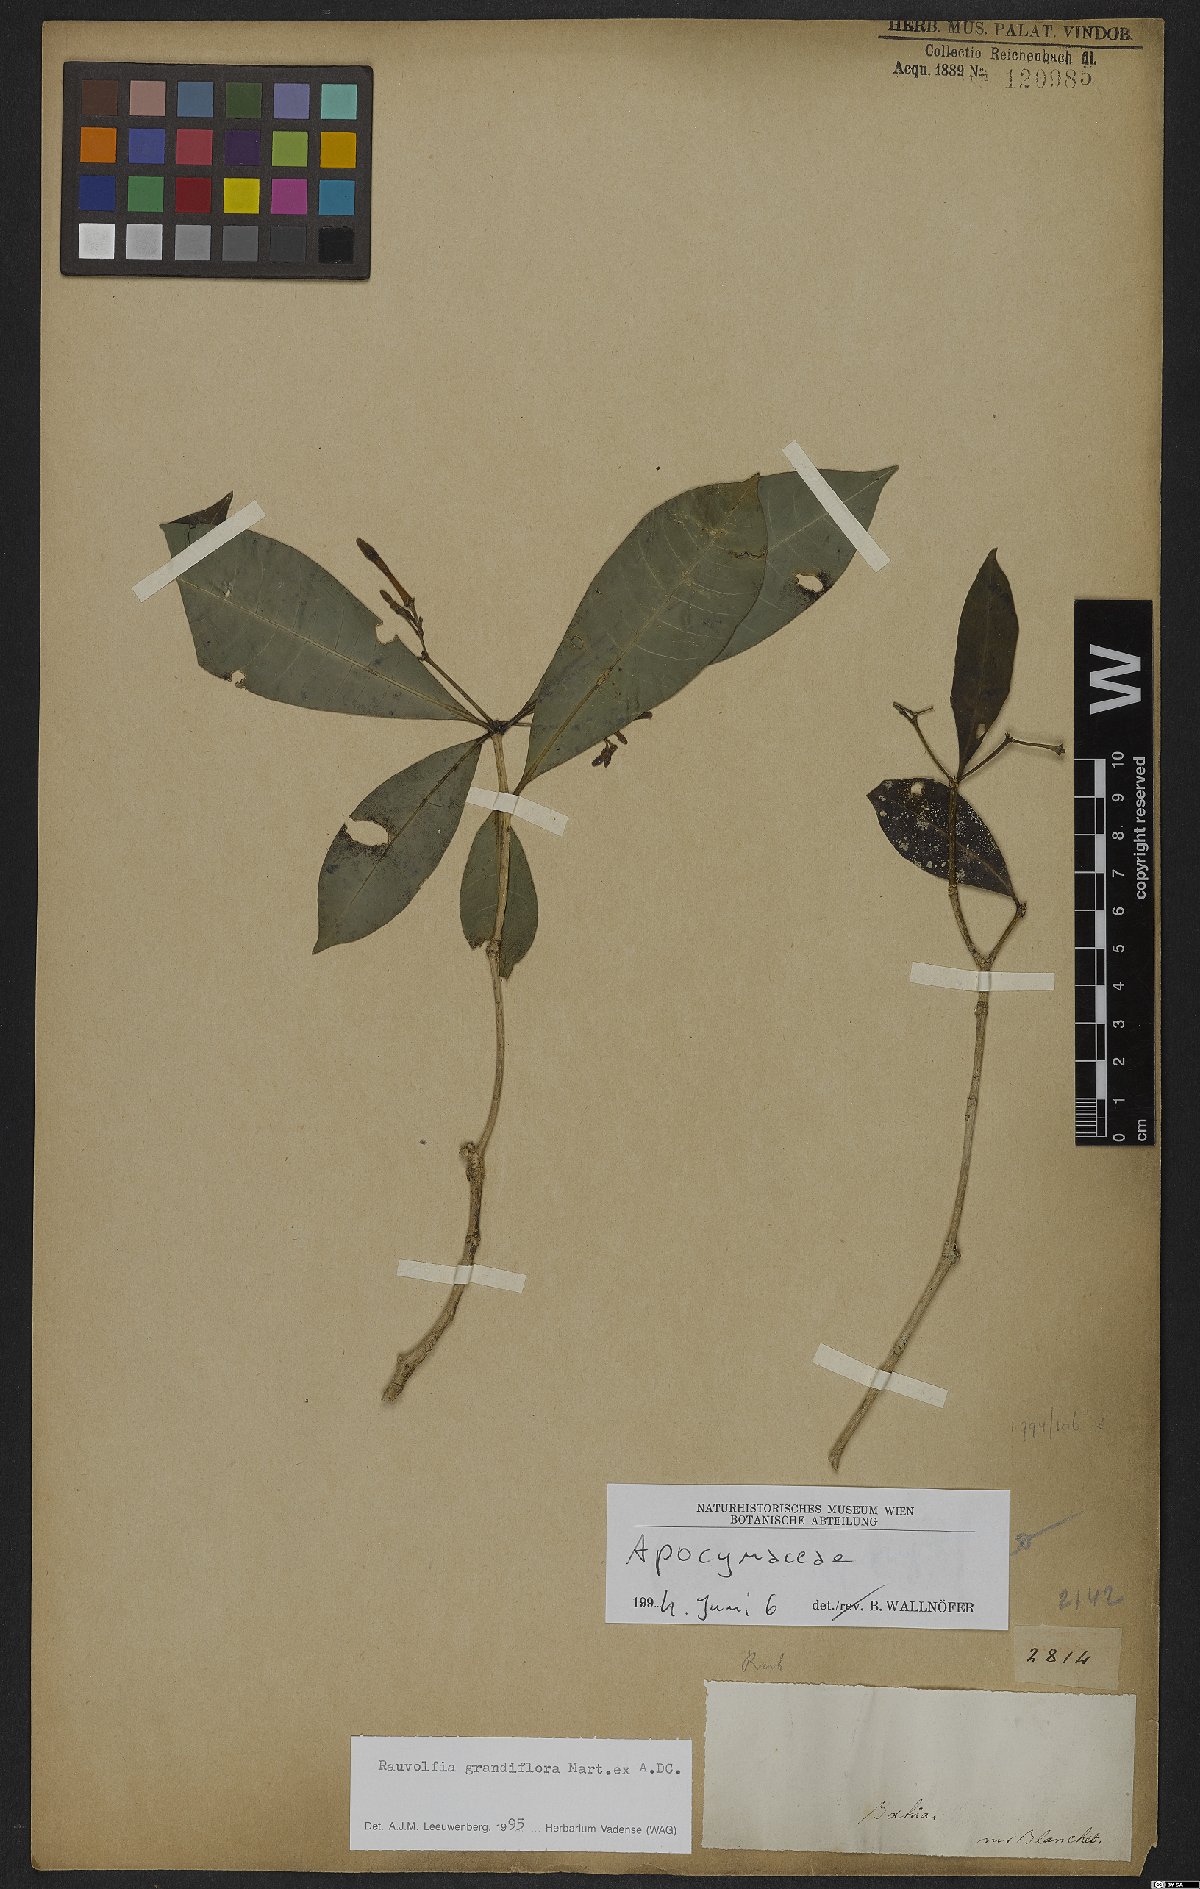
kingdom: Plantae
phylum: Tracheophyta
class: Magnoliopsida
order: Gentianales
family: Apocynaceae
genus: Rauvolfia
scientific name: Rauvolfia grandiflora
